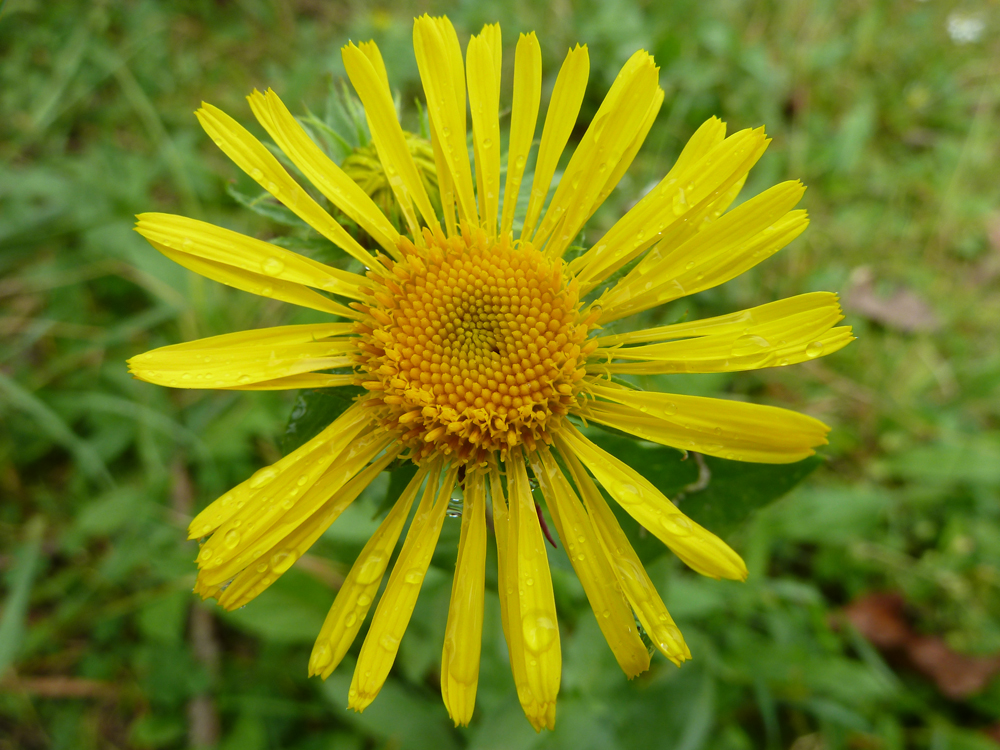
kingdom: Plantae
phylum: Tracheophyta
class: Magnoliopsida
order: Asterales
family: Asteraceae
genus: Pentanema
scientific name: Pentanema britannicum
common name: British elecampane
